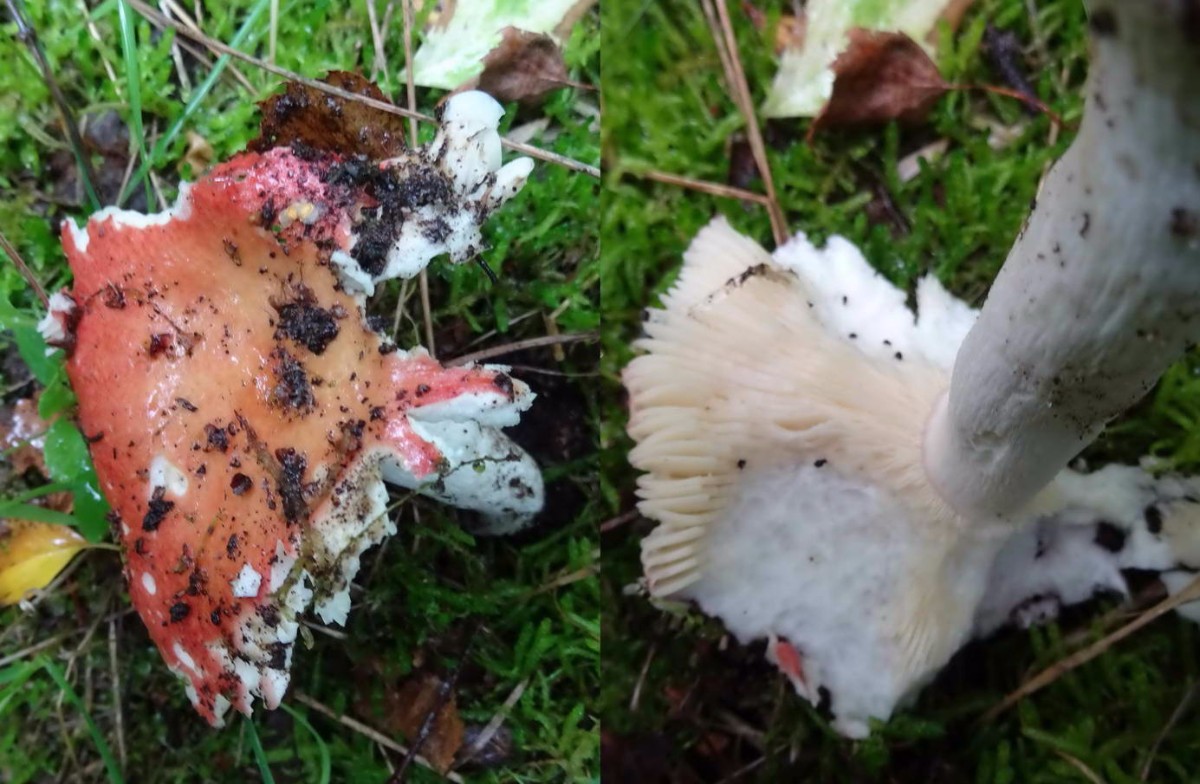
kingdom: Fungi
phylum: Basidiomycota
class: Agaricomycetes
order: Russulales
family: Russulaceae
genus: Russula
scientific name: Russula velenovskyi
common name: orangerød skørhat
